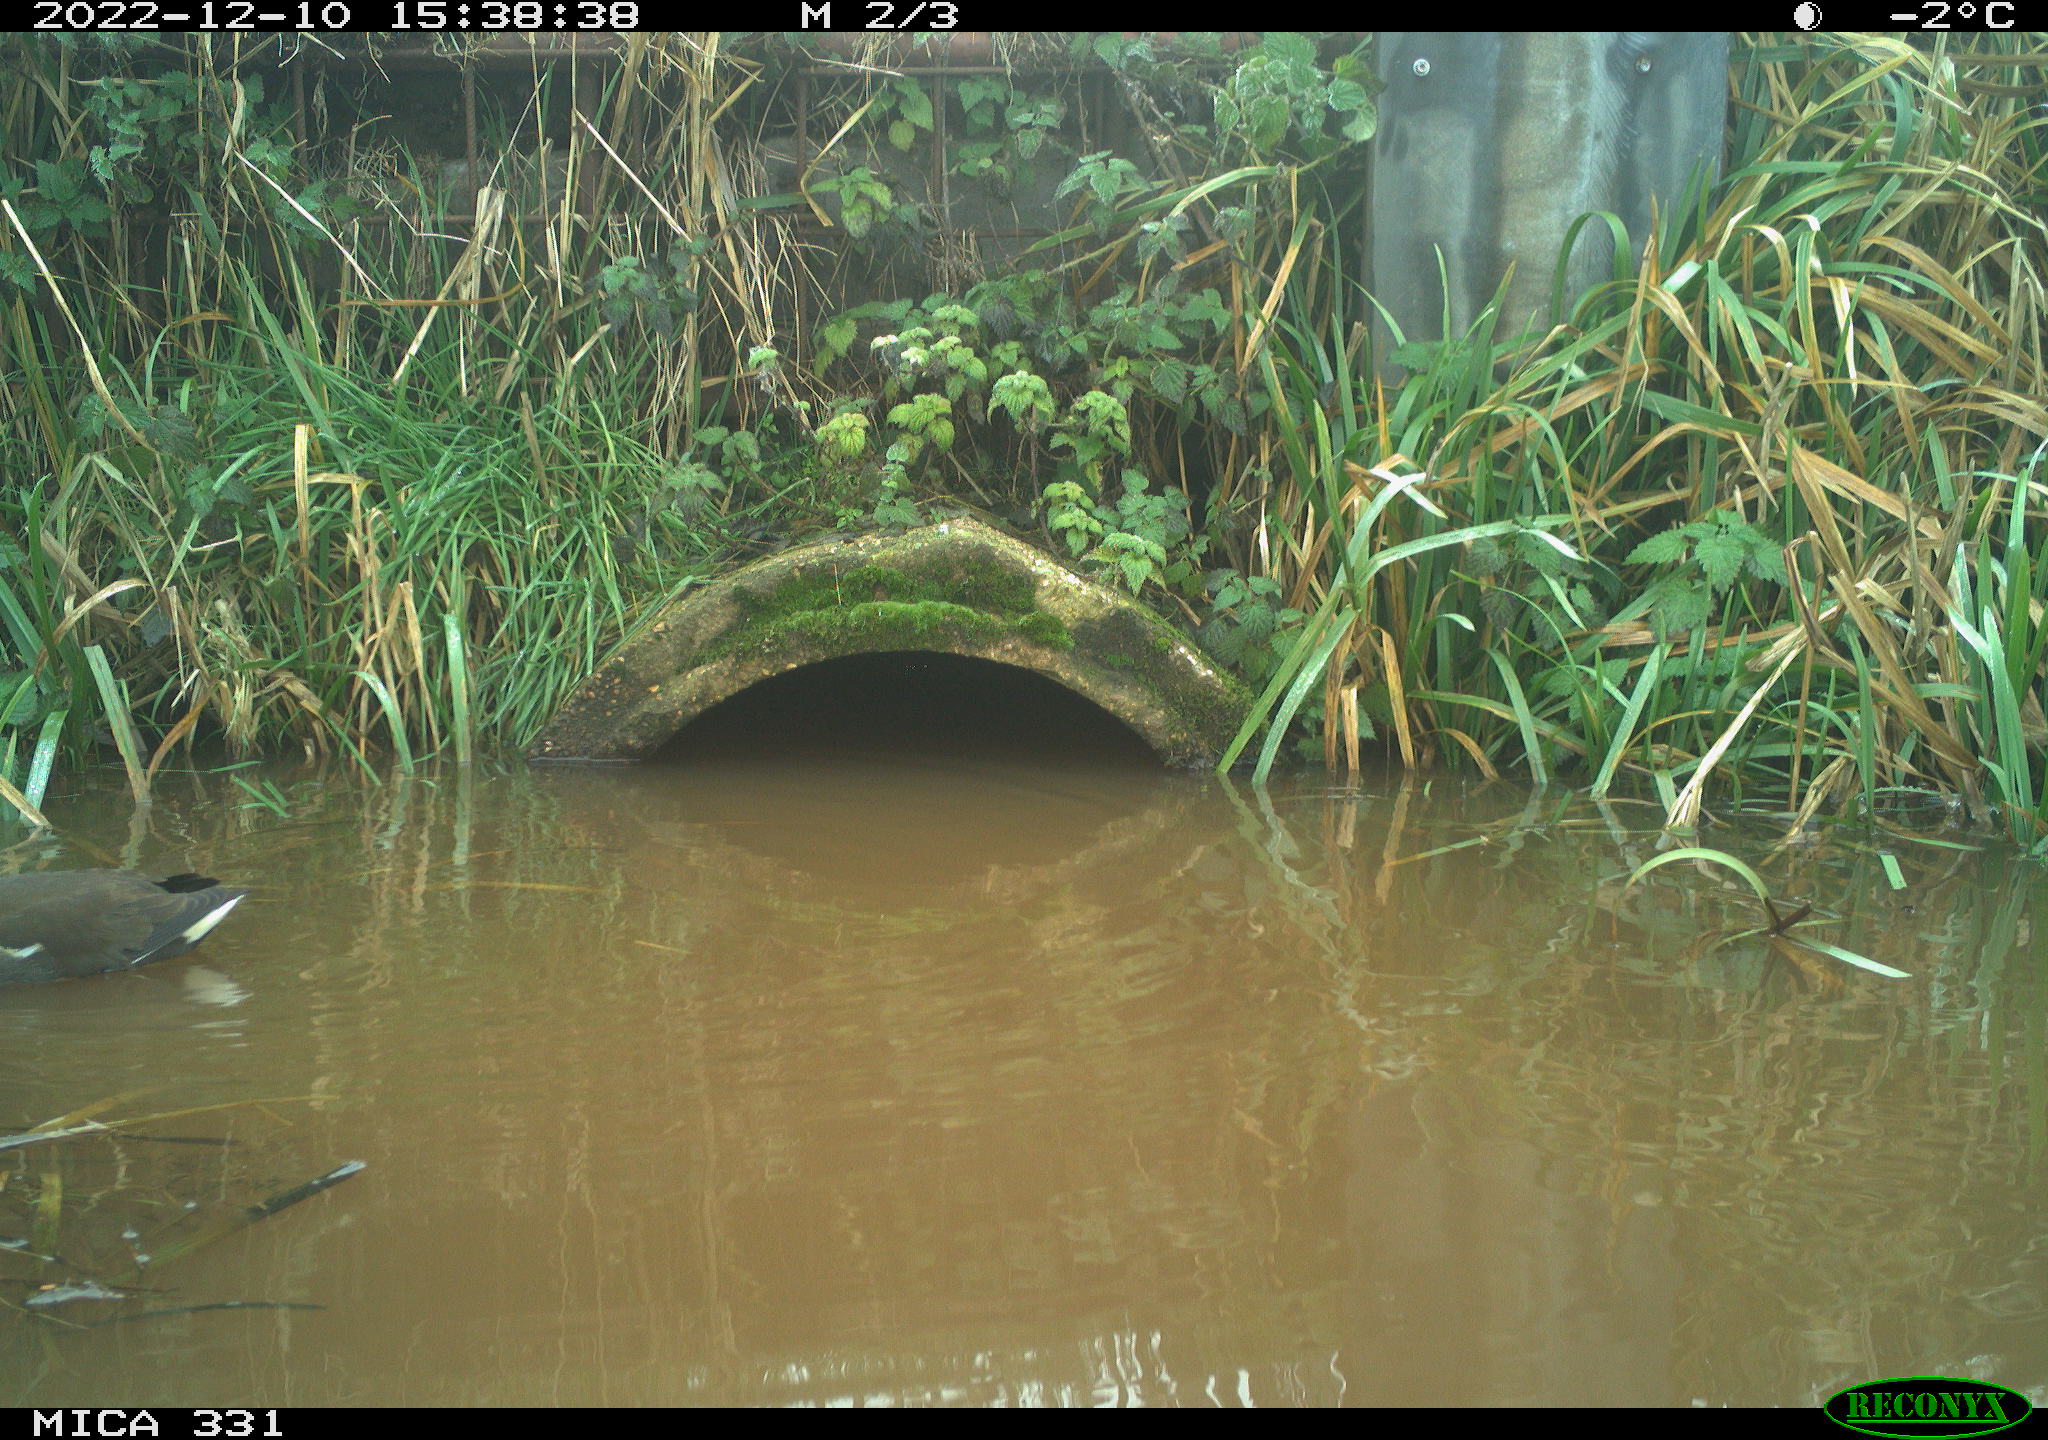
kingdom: Animalia
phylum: Chordata
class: Aves
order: Gruiformes
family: Rallidae
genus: Gallinula
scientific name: Gallinula chloropus
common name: Common moorhen
